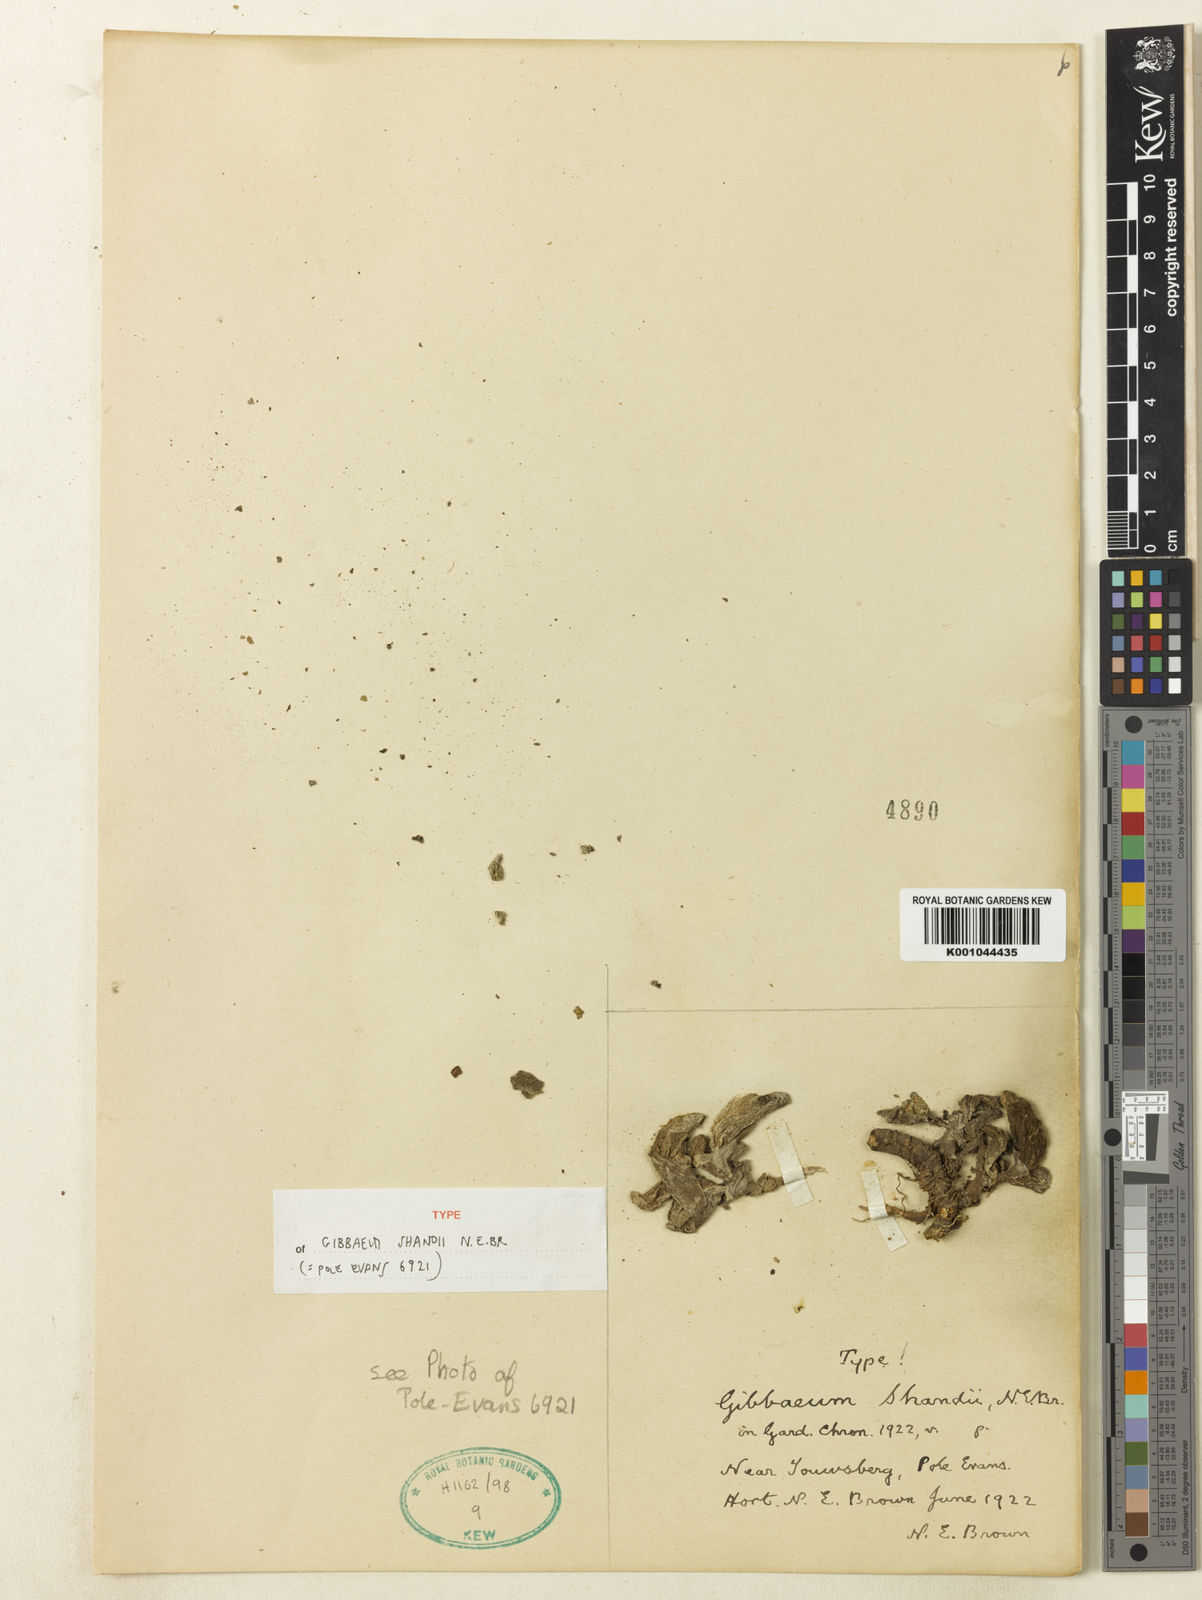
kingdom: Plantae
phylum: Tracheophyta
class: Magnoliopsida
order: Caryophyllales
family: Aizoaceae
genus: Gibbaeum
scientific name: Gibbaeum shandii
